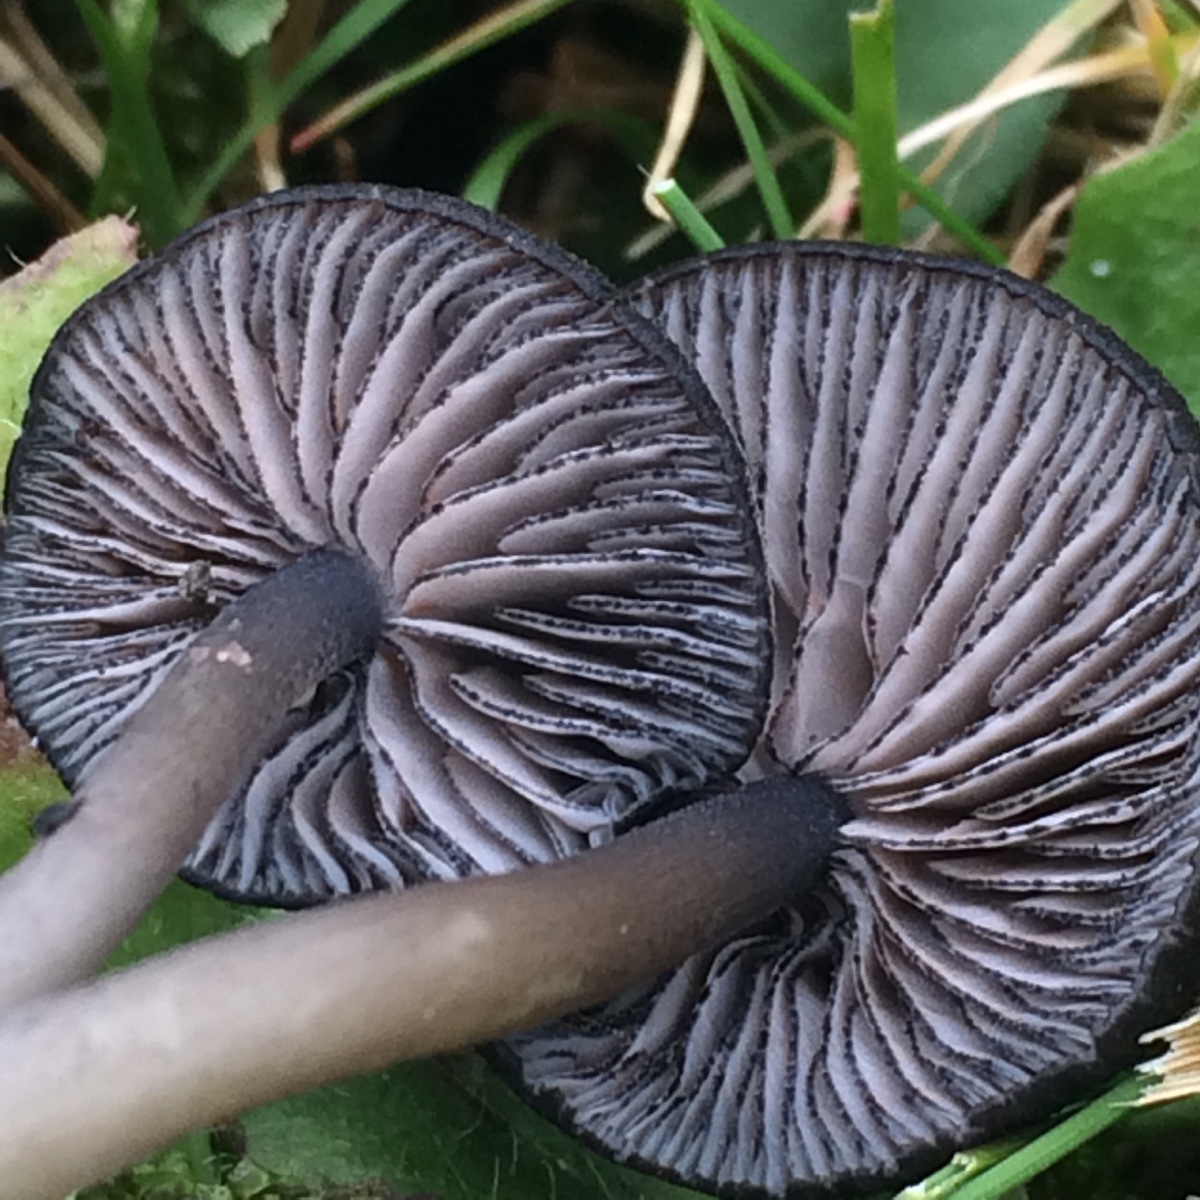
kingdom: Fungi
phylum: Basidiomycota
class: Agaricomycetes
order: Agaricales
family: Entolomataceae
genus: Entoloma
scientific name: Entoloma
